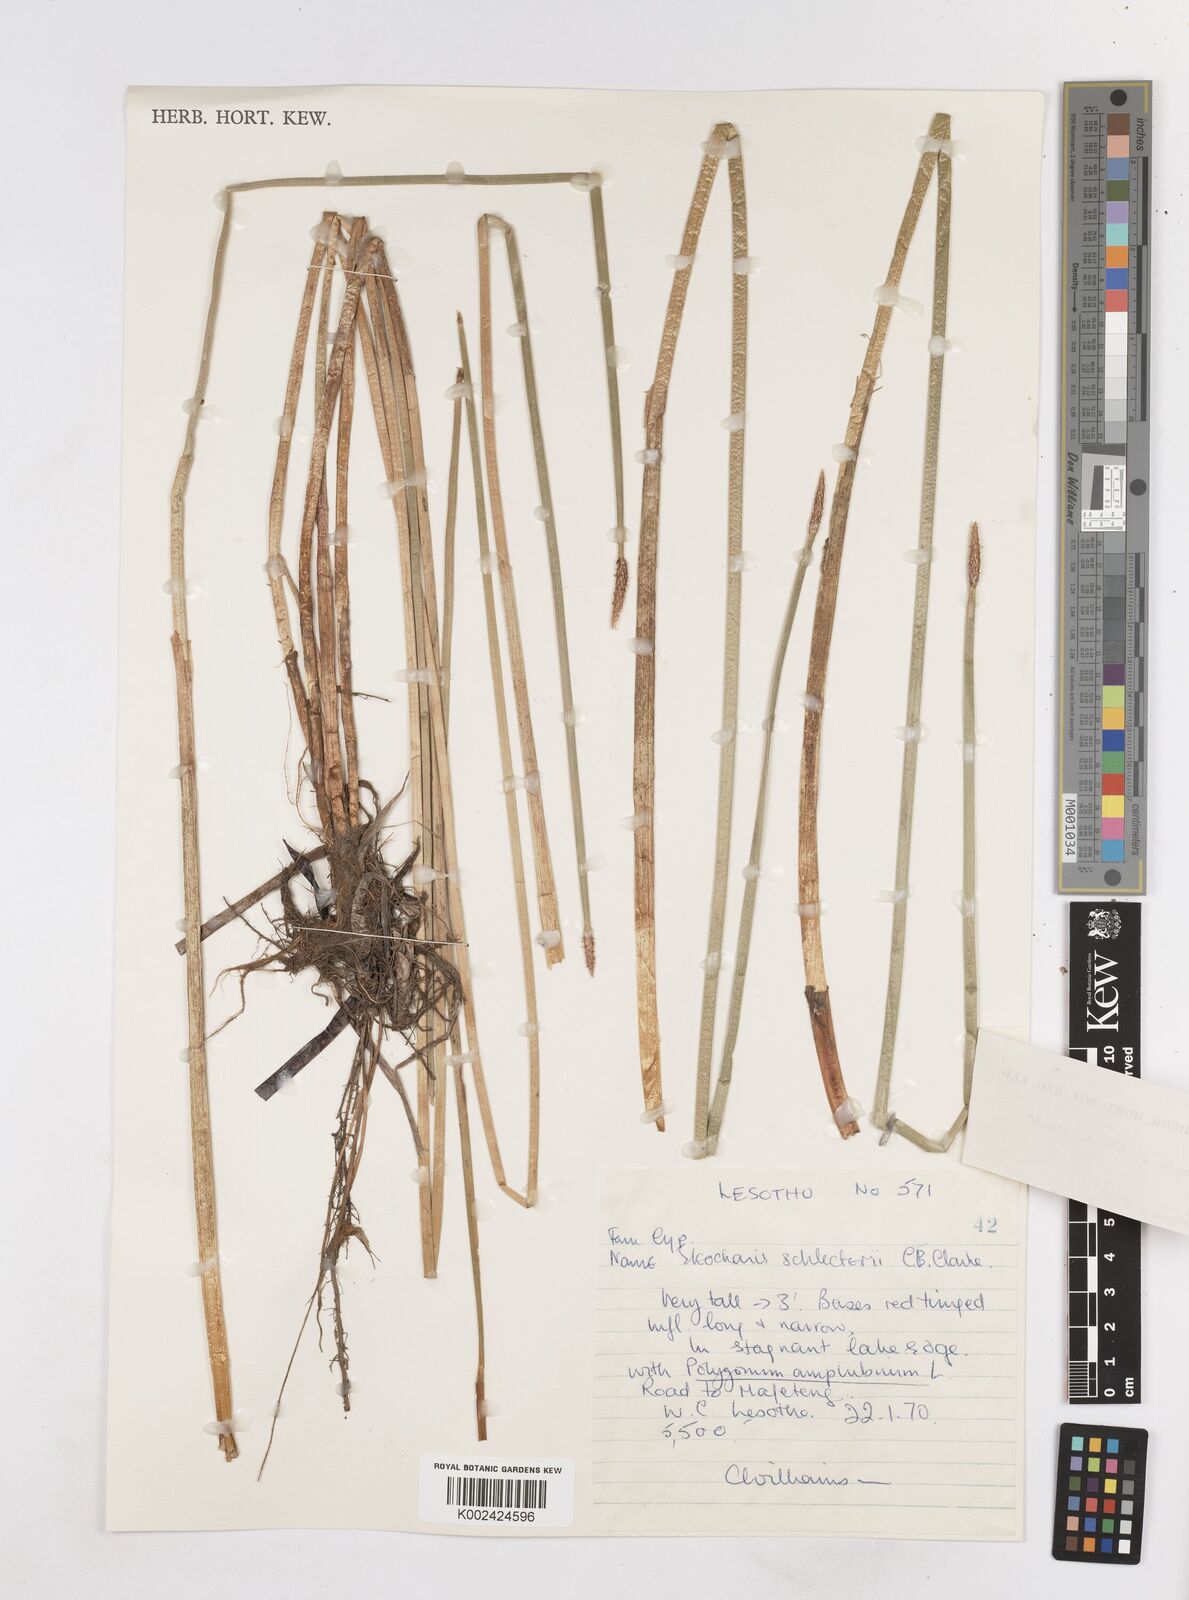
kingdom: Plantae
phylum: Tracheophyta
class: Liliopsida
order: Poales
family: Cyperaceae
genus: Eleocharis
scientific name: Eleocharis limosa
